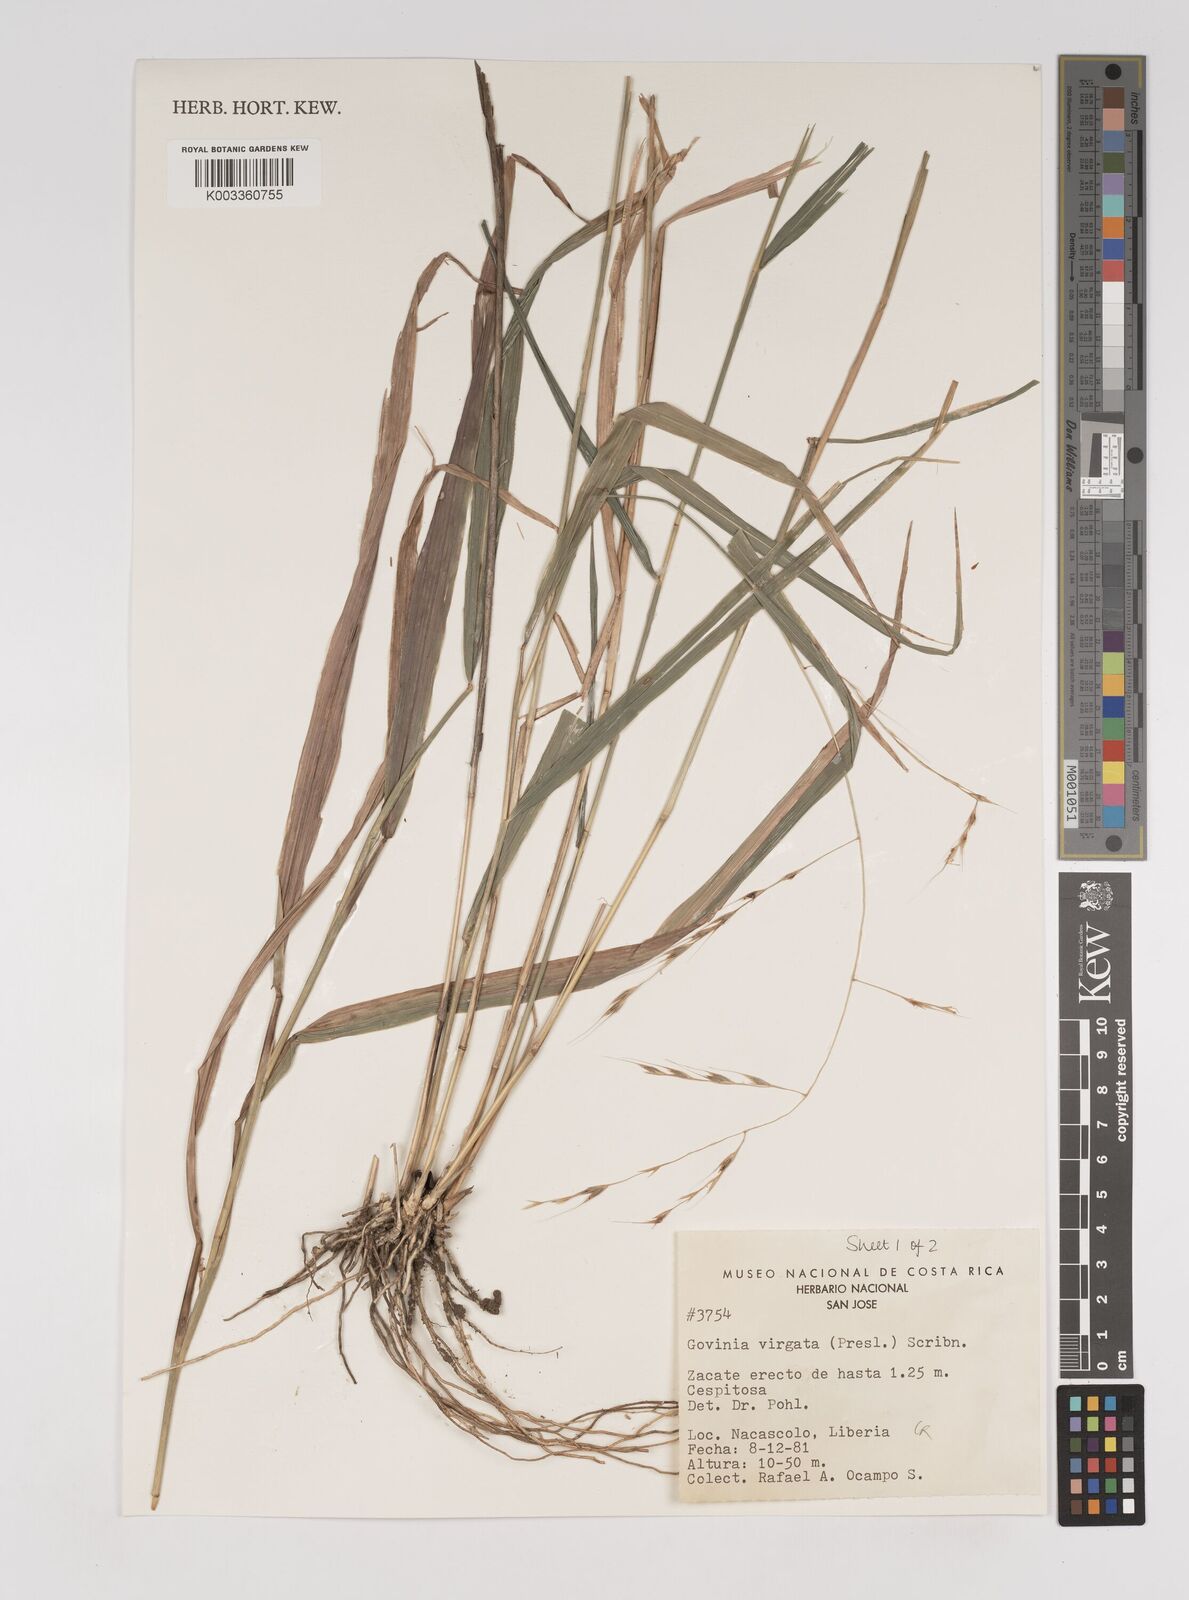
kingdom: Plantae
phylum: Tracheophyta
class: Liliopsida
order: Poales
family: Poaceae
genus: Gouinia
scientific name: Gouinia virgata
